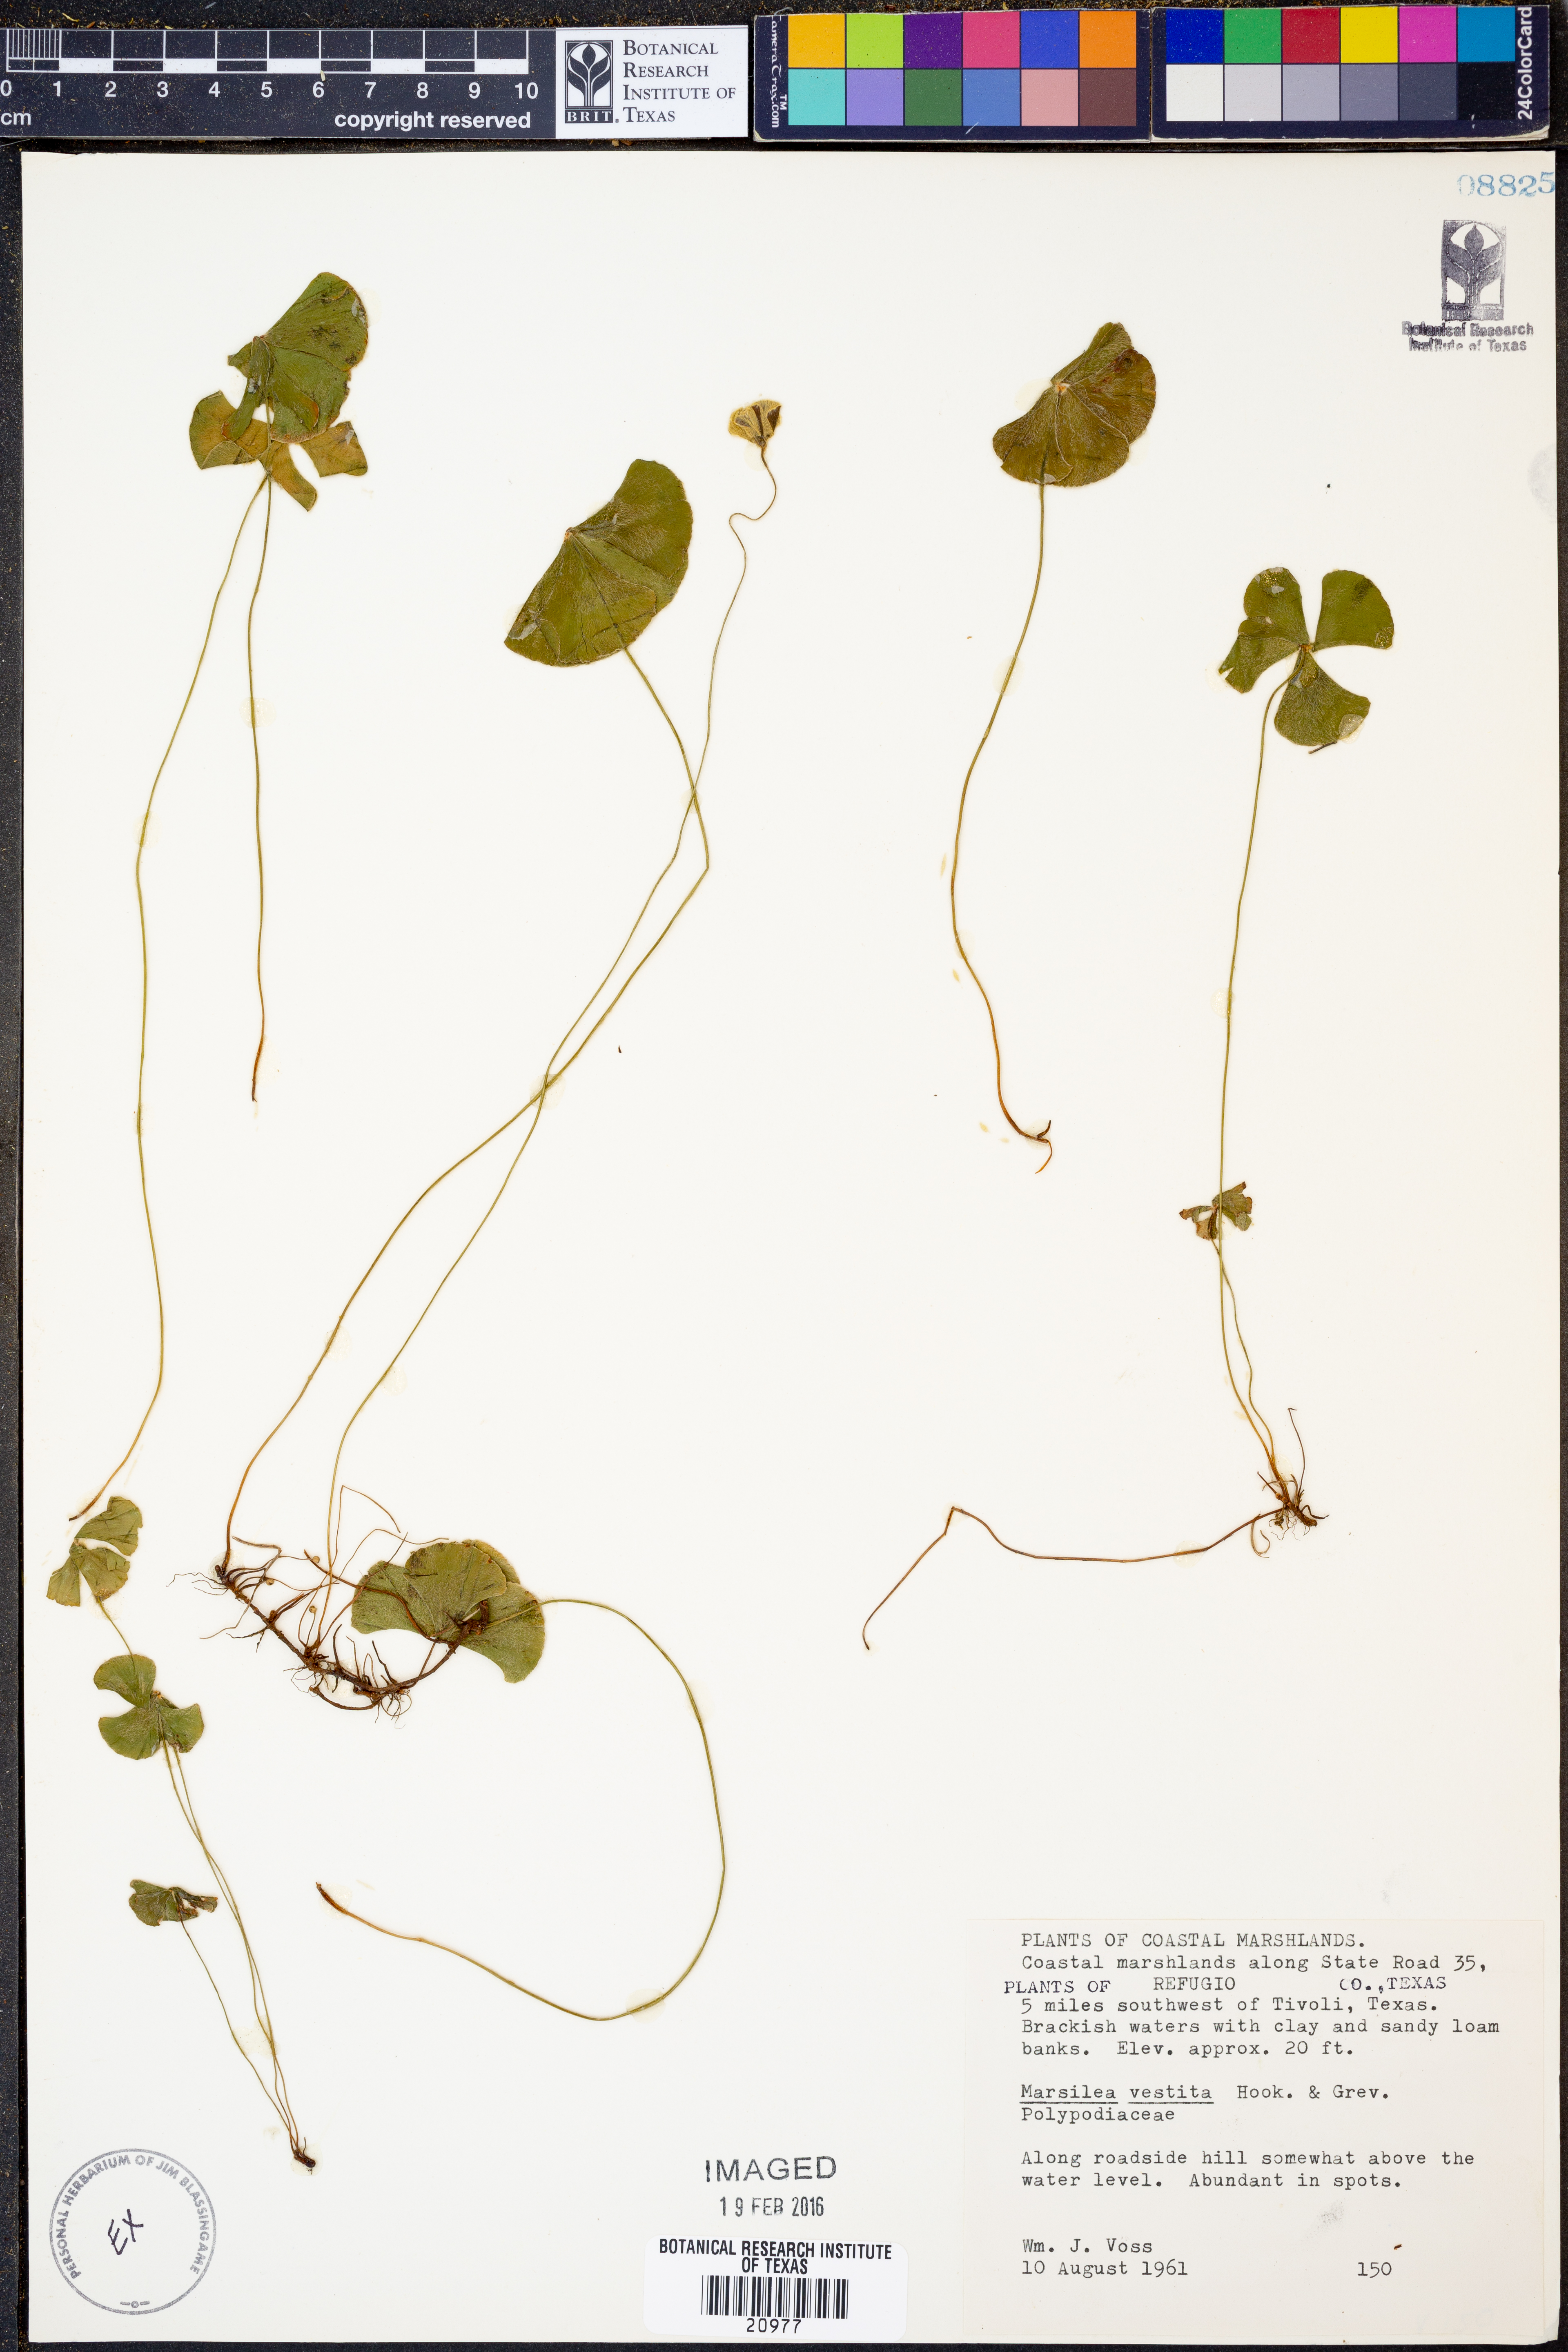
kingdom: Plantae
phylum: Tracheophyta
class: Polypodiopsida
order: Salviniales
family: Marsileaceae
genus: Marsilea
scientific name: Marsilea vestita
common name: Hooked-pepperwort
